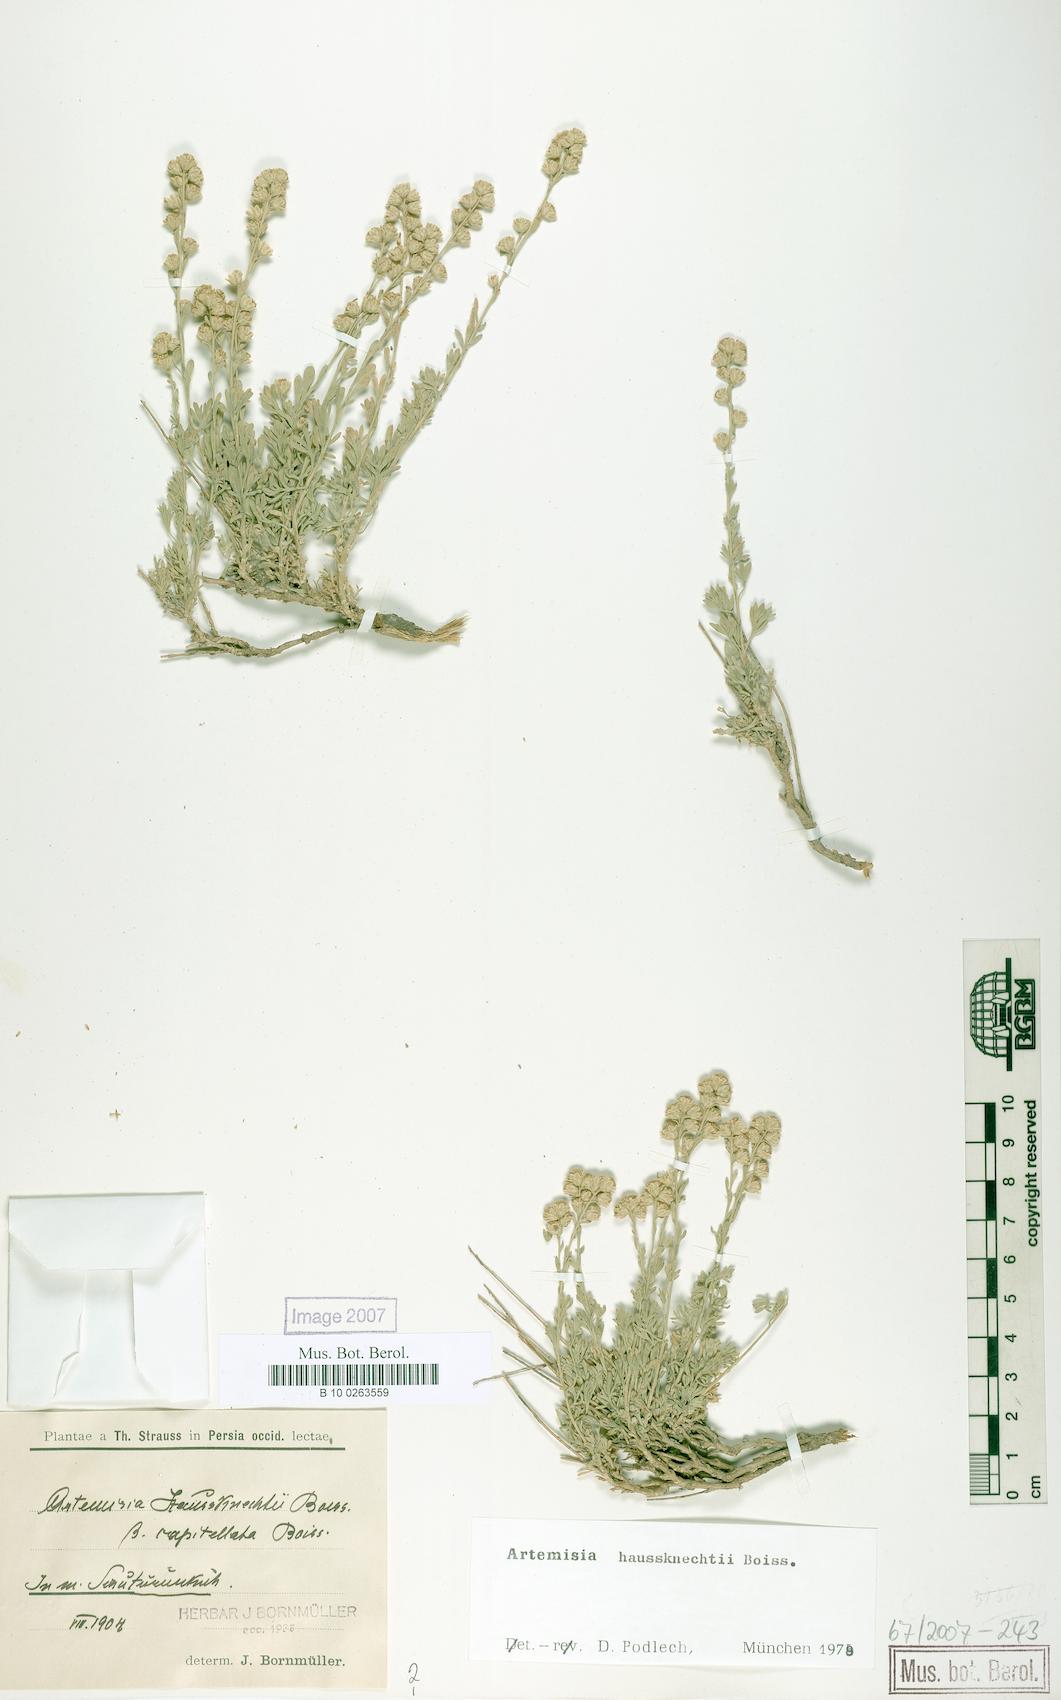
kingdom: Plantae
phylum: Tracheophyta
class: Magnoliopsida
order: Asterales
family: Asteraceae
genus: Artemisia
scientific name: Artemisia haussknechtii
